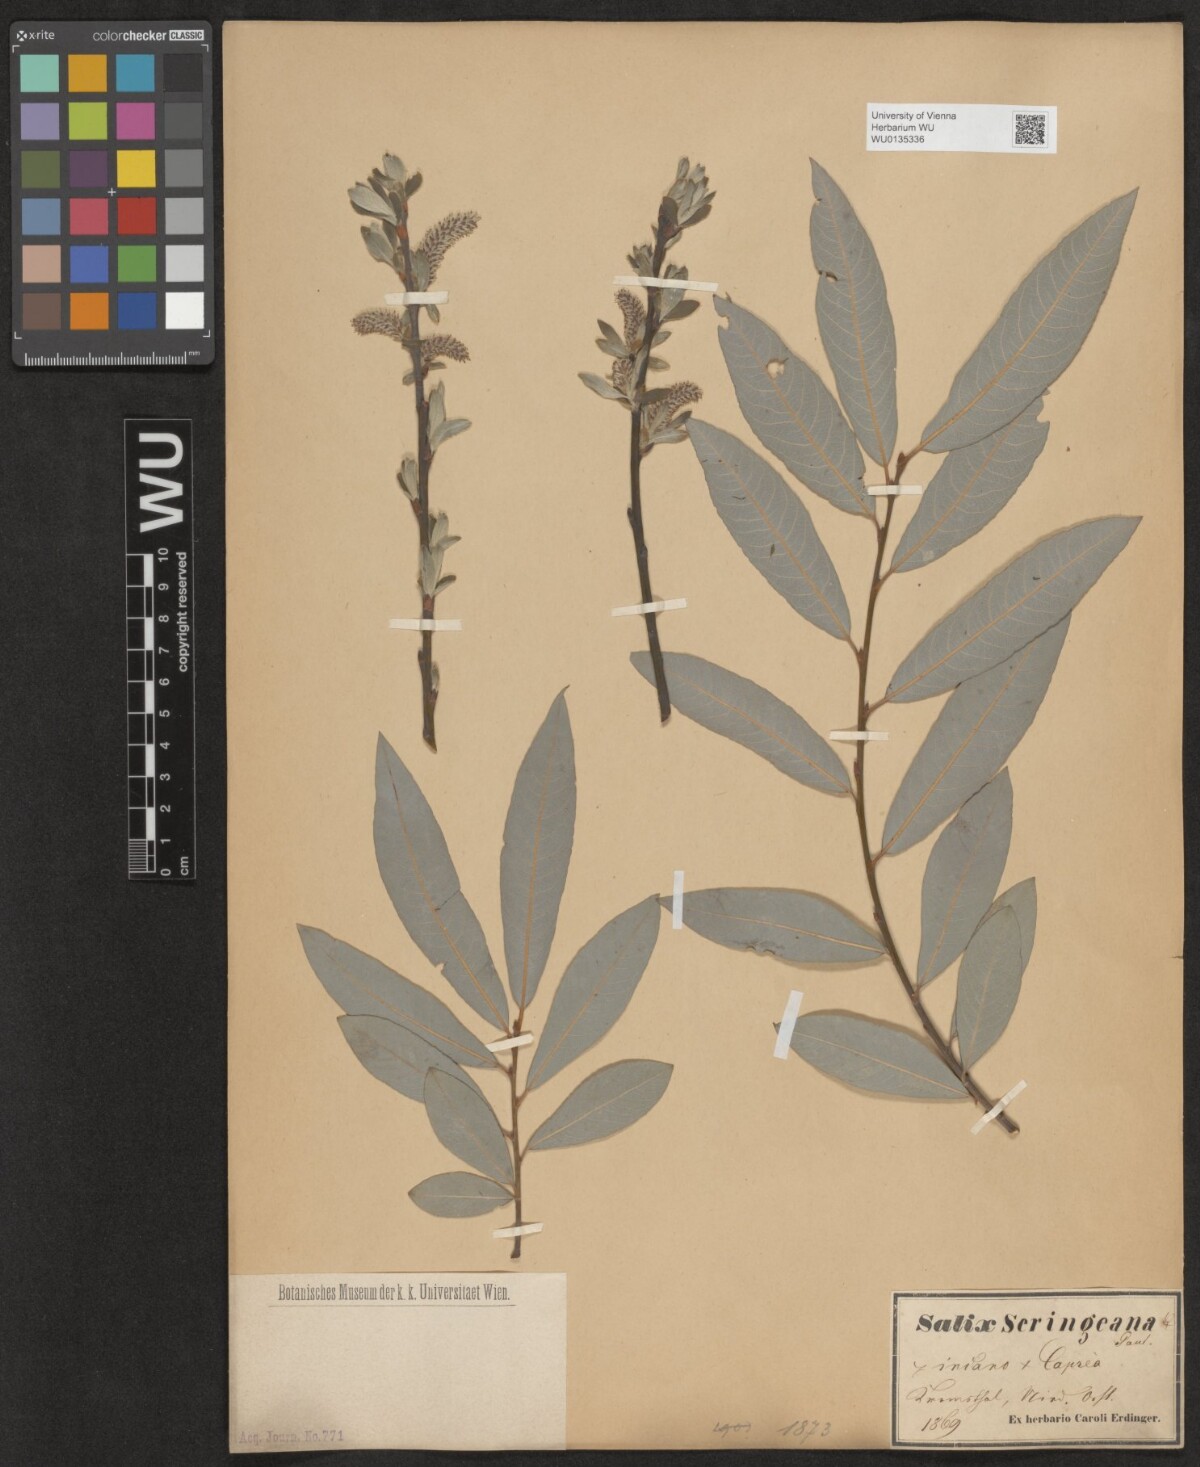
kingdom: Plantae
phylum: Tracheophyta
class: Magnoliopsida
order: Malpighiales
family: Salicaceae
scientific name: Salicaceae
